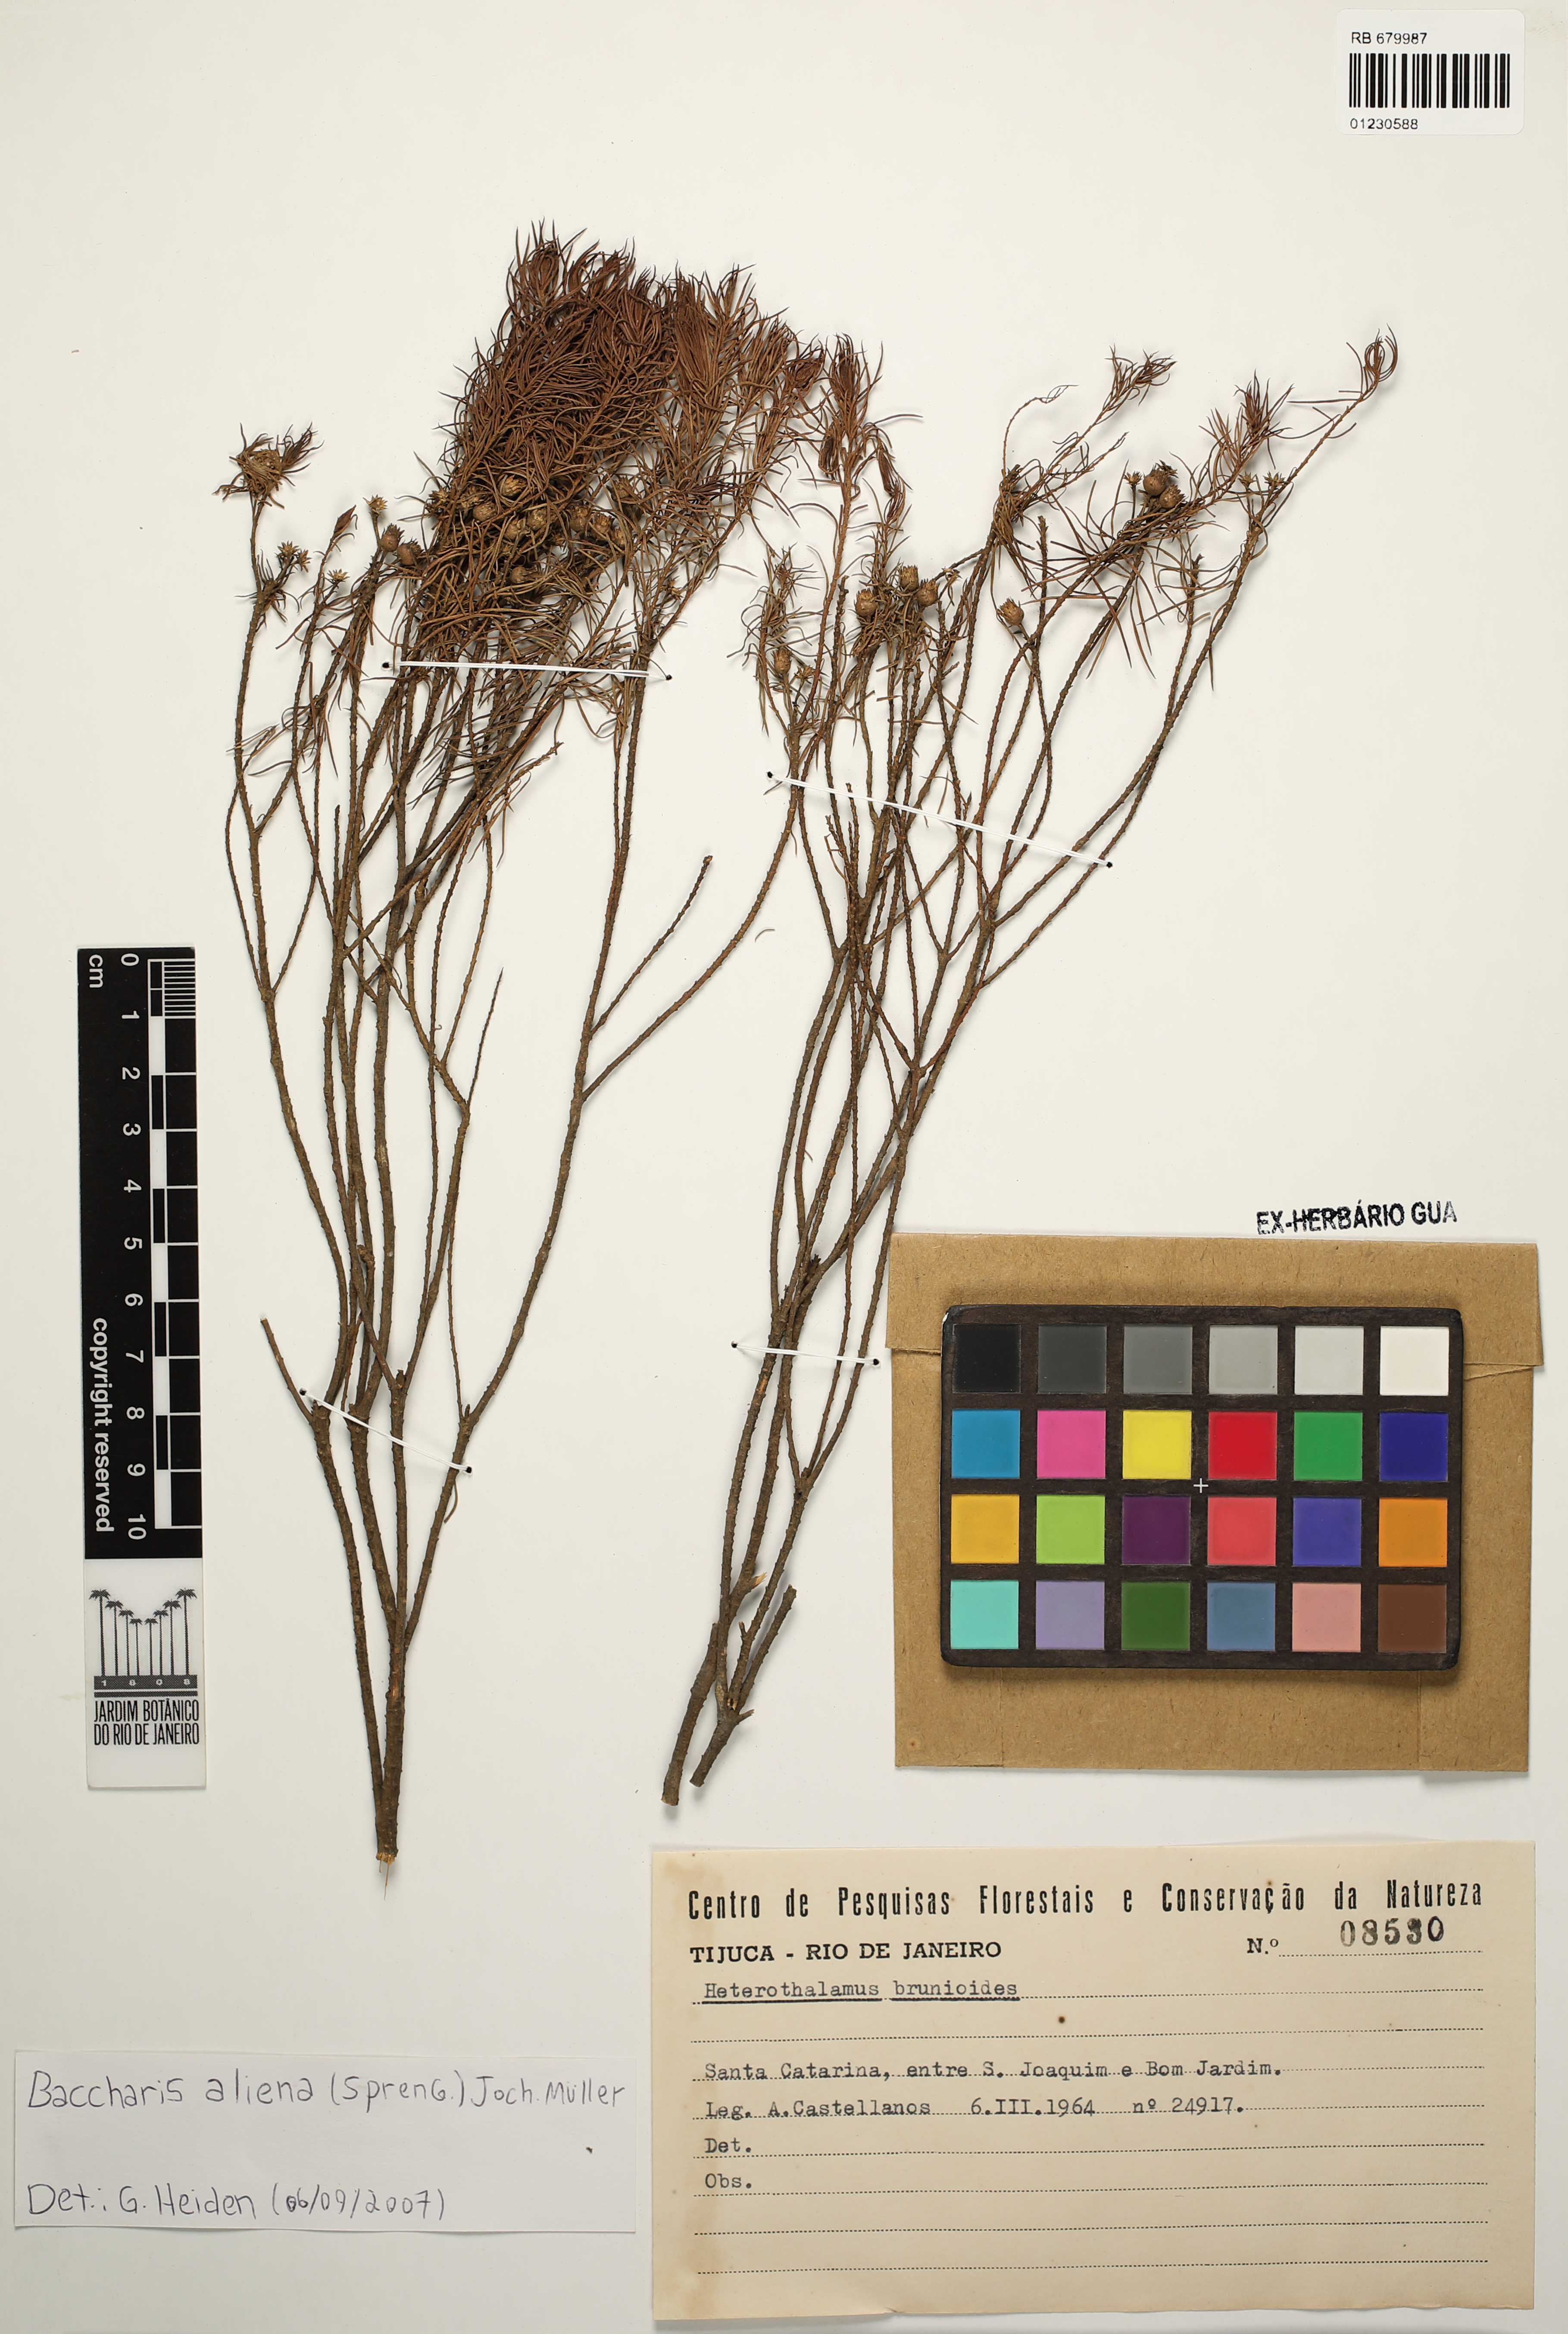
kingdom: Plantae
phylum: Tracheophyta
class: Magnoliopsida
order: Asterales
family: Asteraceae
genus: Baccharis
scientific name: Baccharis aliena
